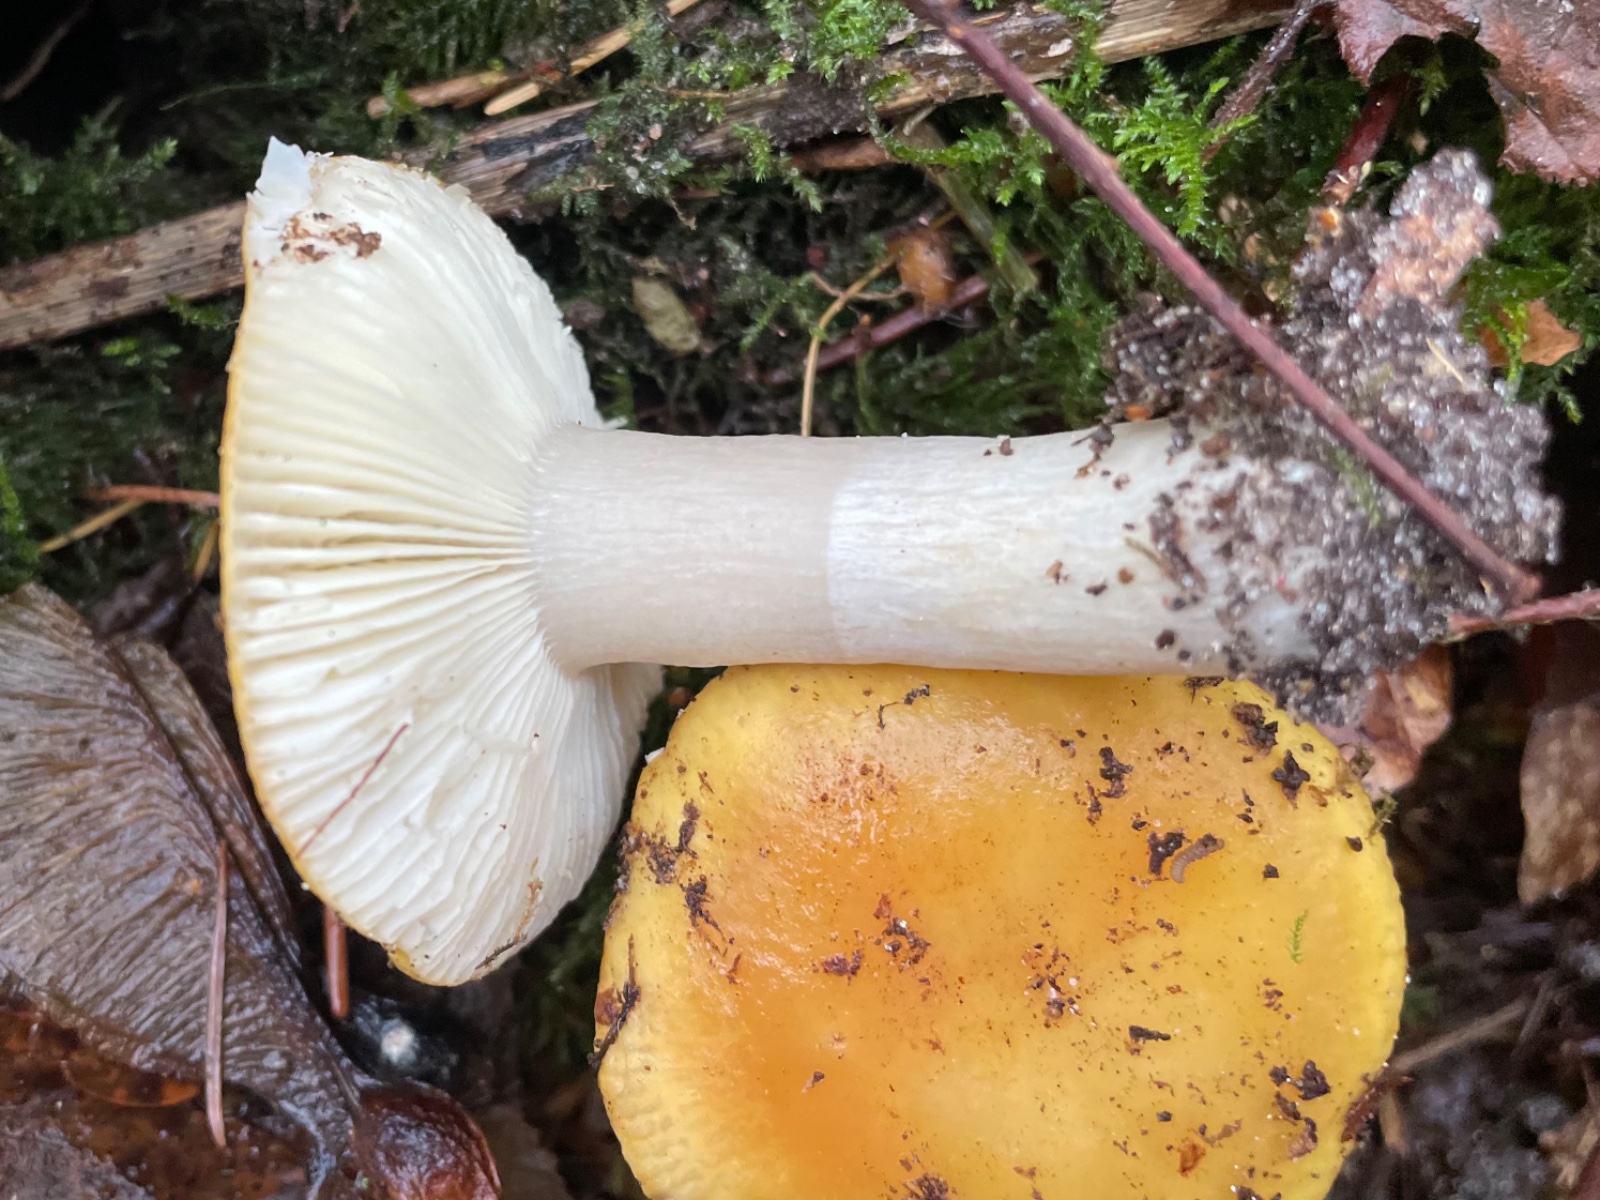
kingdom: Fungi
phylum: Basidiomycota
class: Agaricomycetes
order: Russulales
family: Russulaceae
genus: Russula
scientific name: Russula ochroleuca
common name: okkergul skørhat
